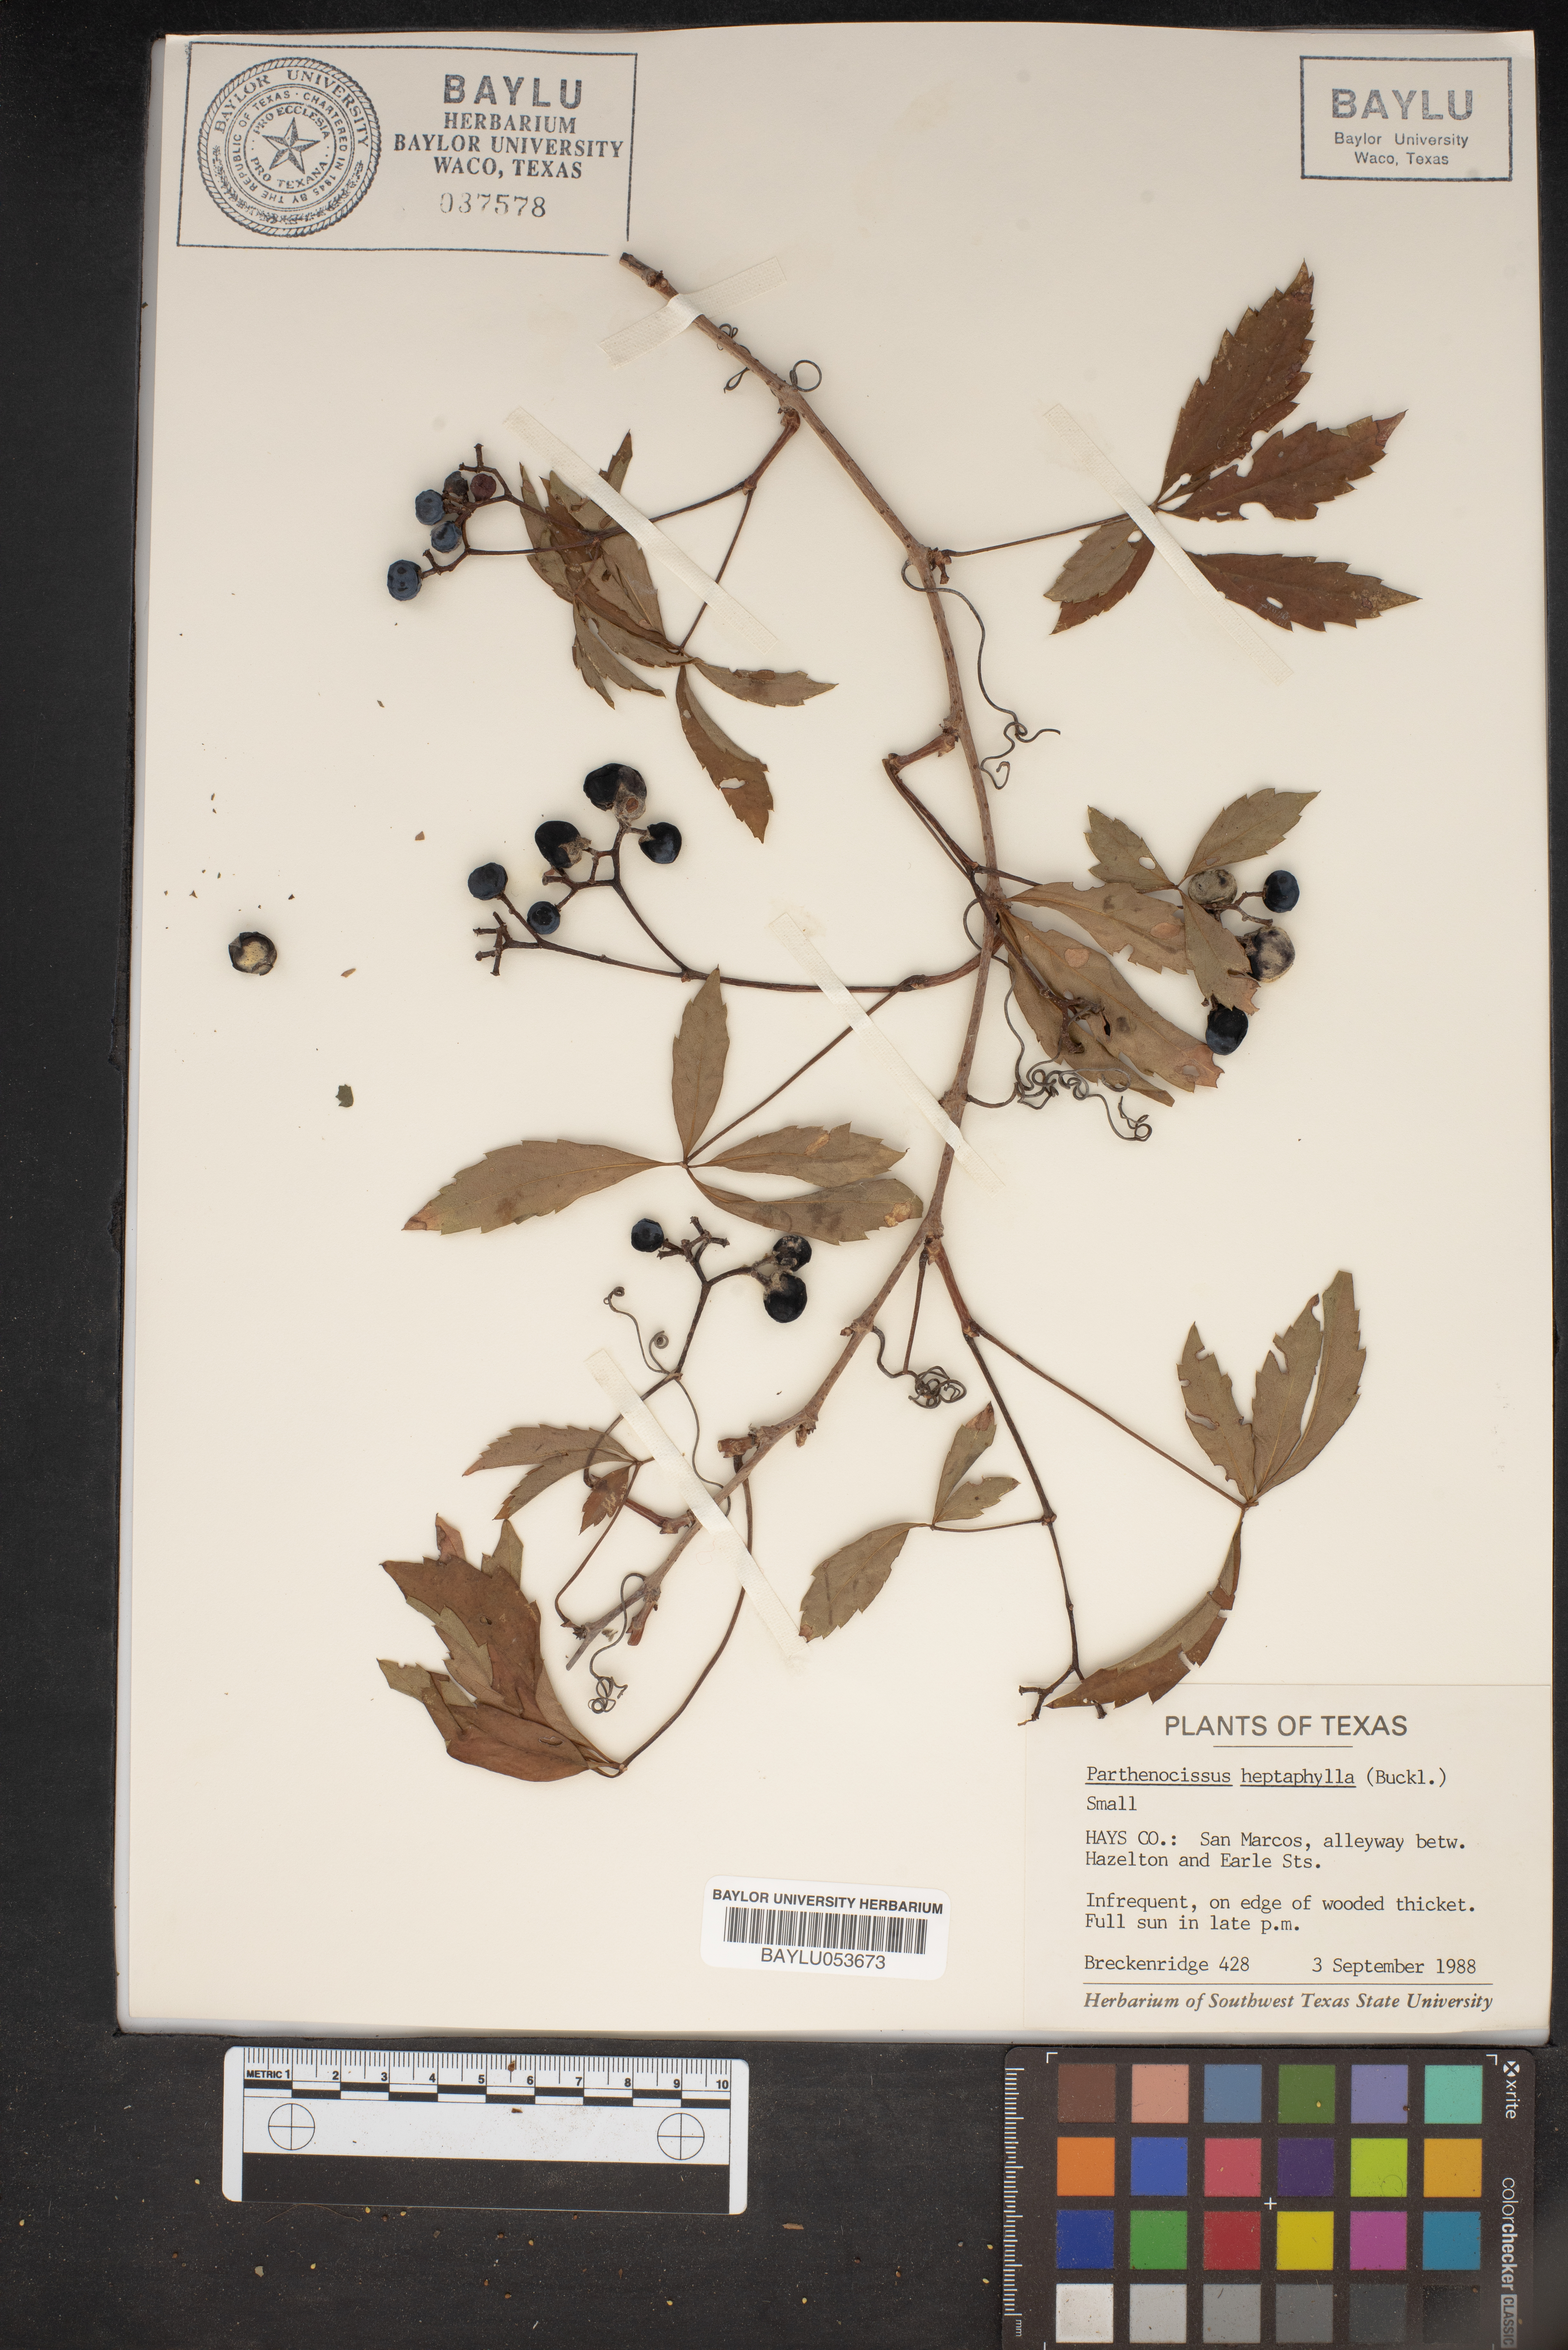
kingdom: Plantae
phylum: Tracheophyta
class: Magnoliopsida
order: Vitales
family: Vitaceae
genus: Parthenocissus
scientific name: Parthenocissus heptaphylla
